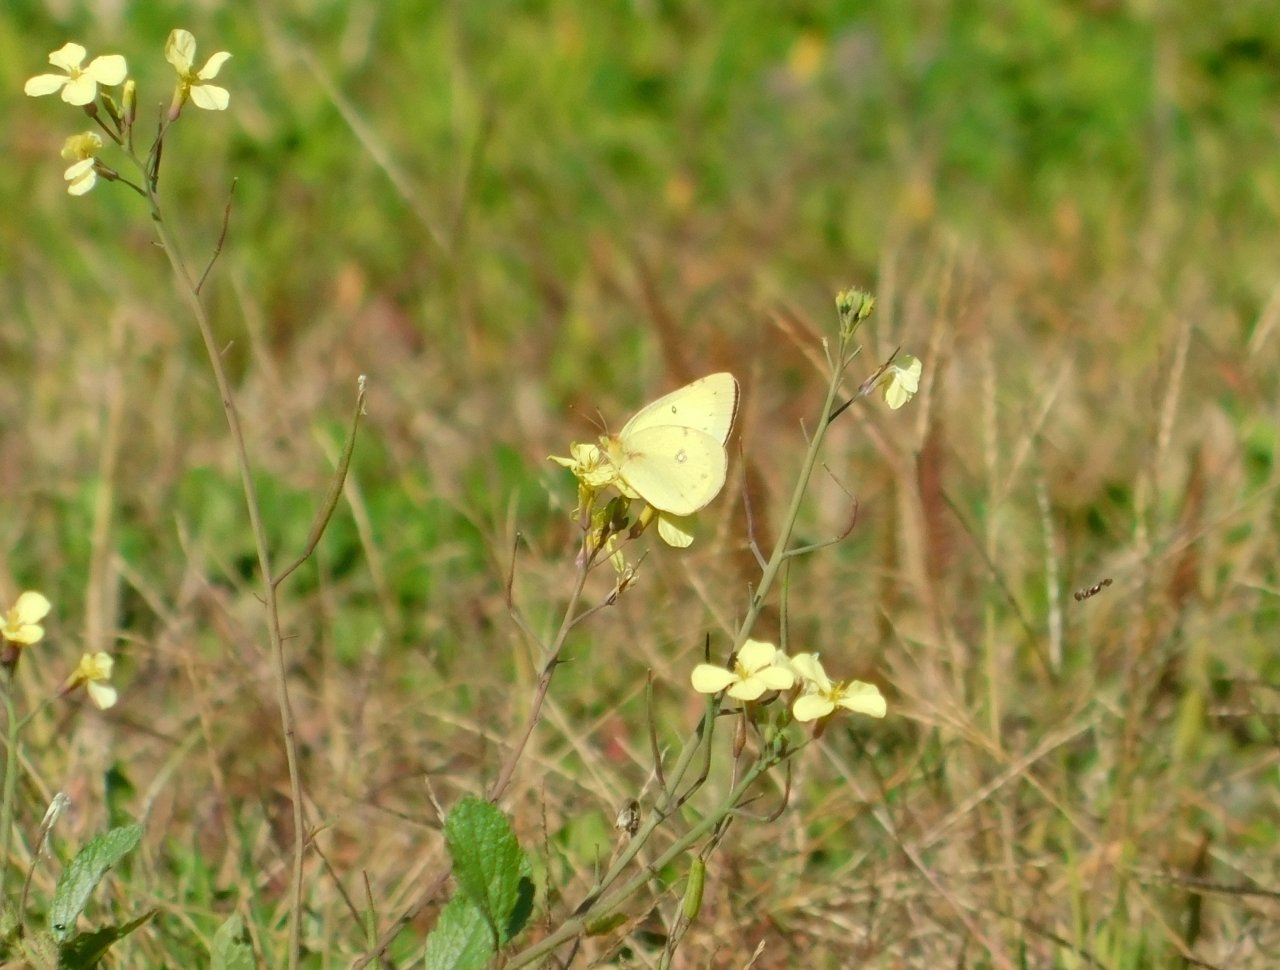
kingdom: Animalia
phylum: Arthropoda
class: Insecta
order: Lepidoptera
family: Pieridae
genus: Colias
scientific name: Colias philodice
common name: Clouded Sulphur
